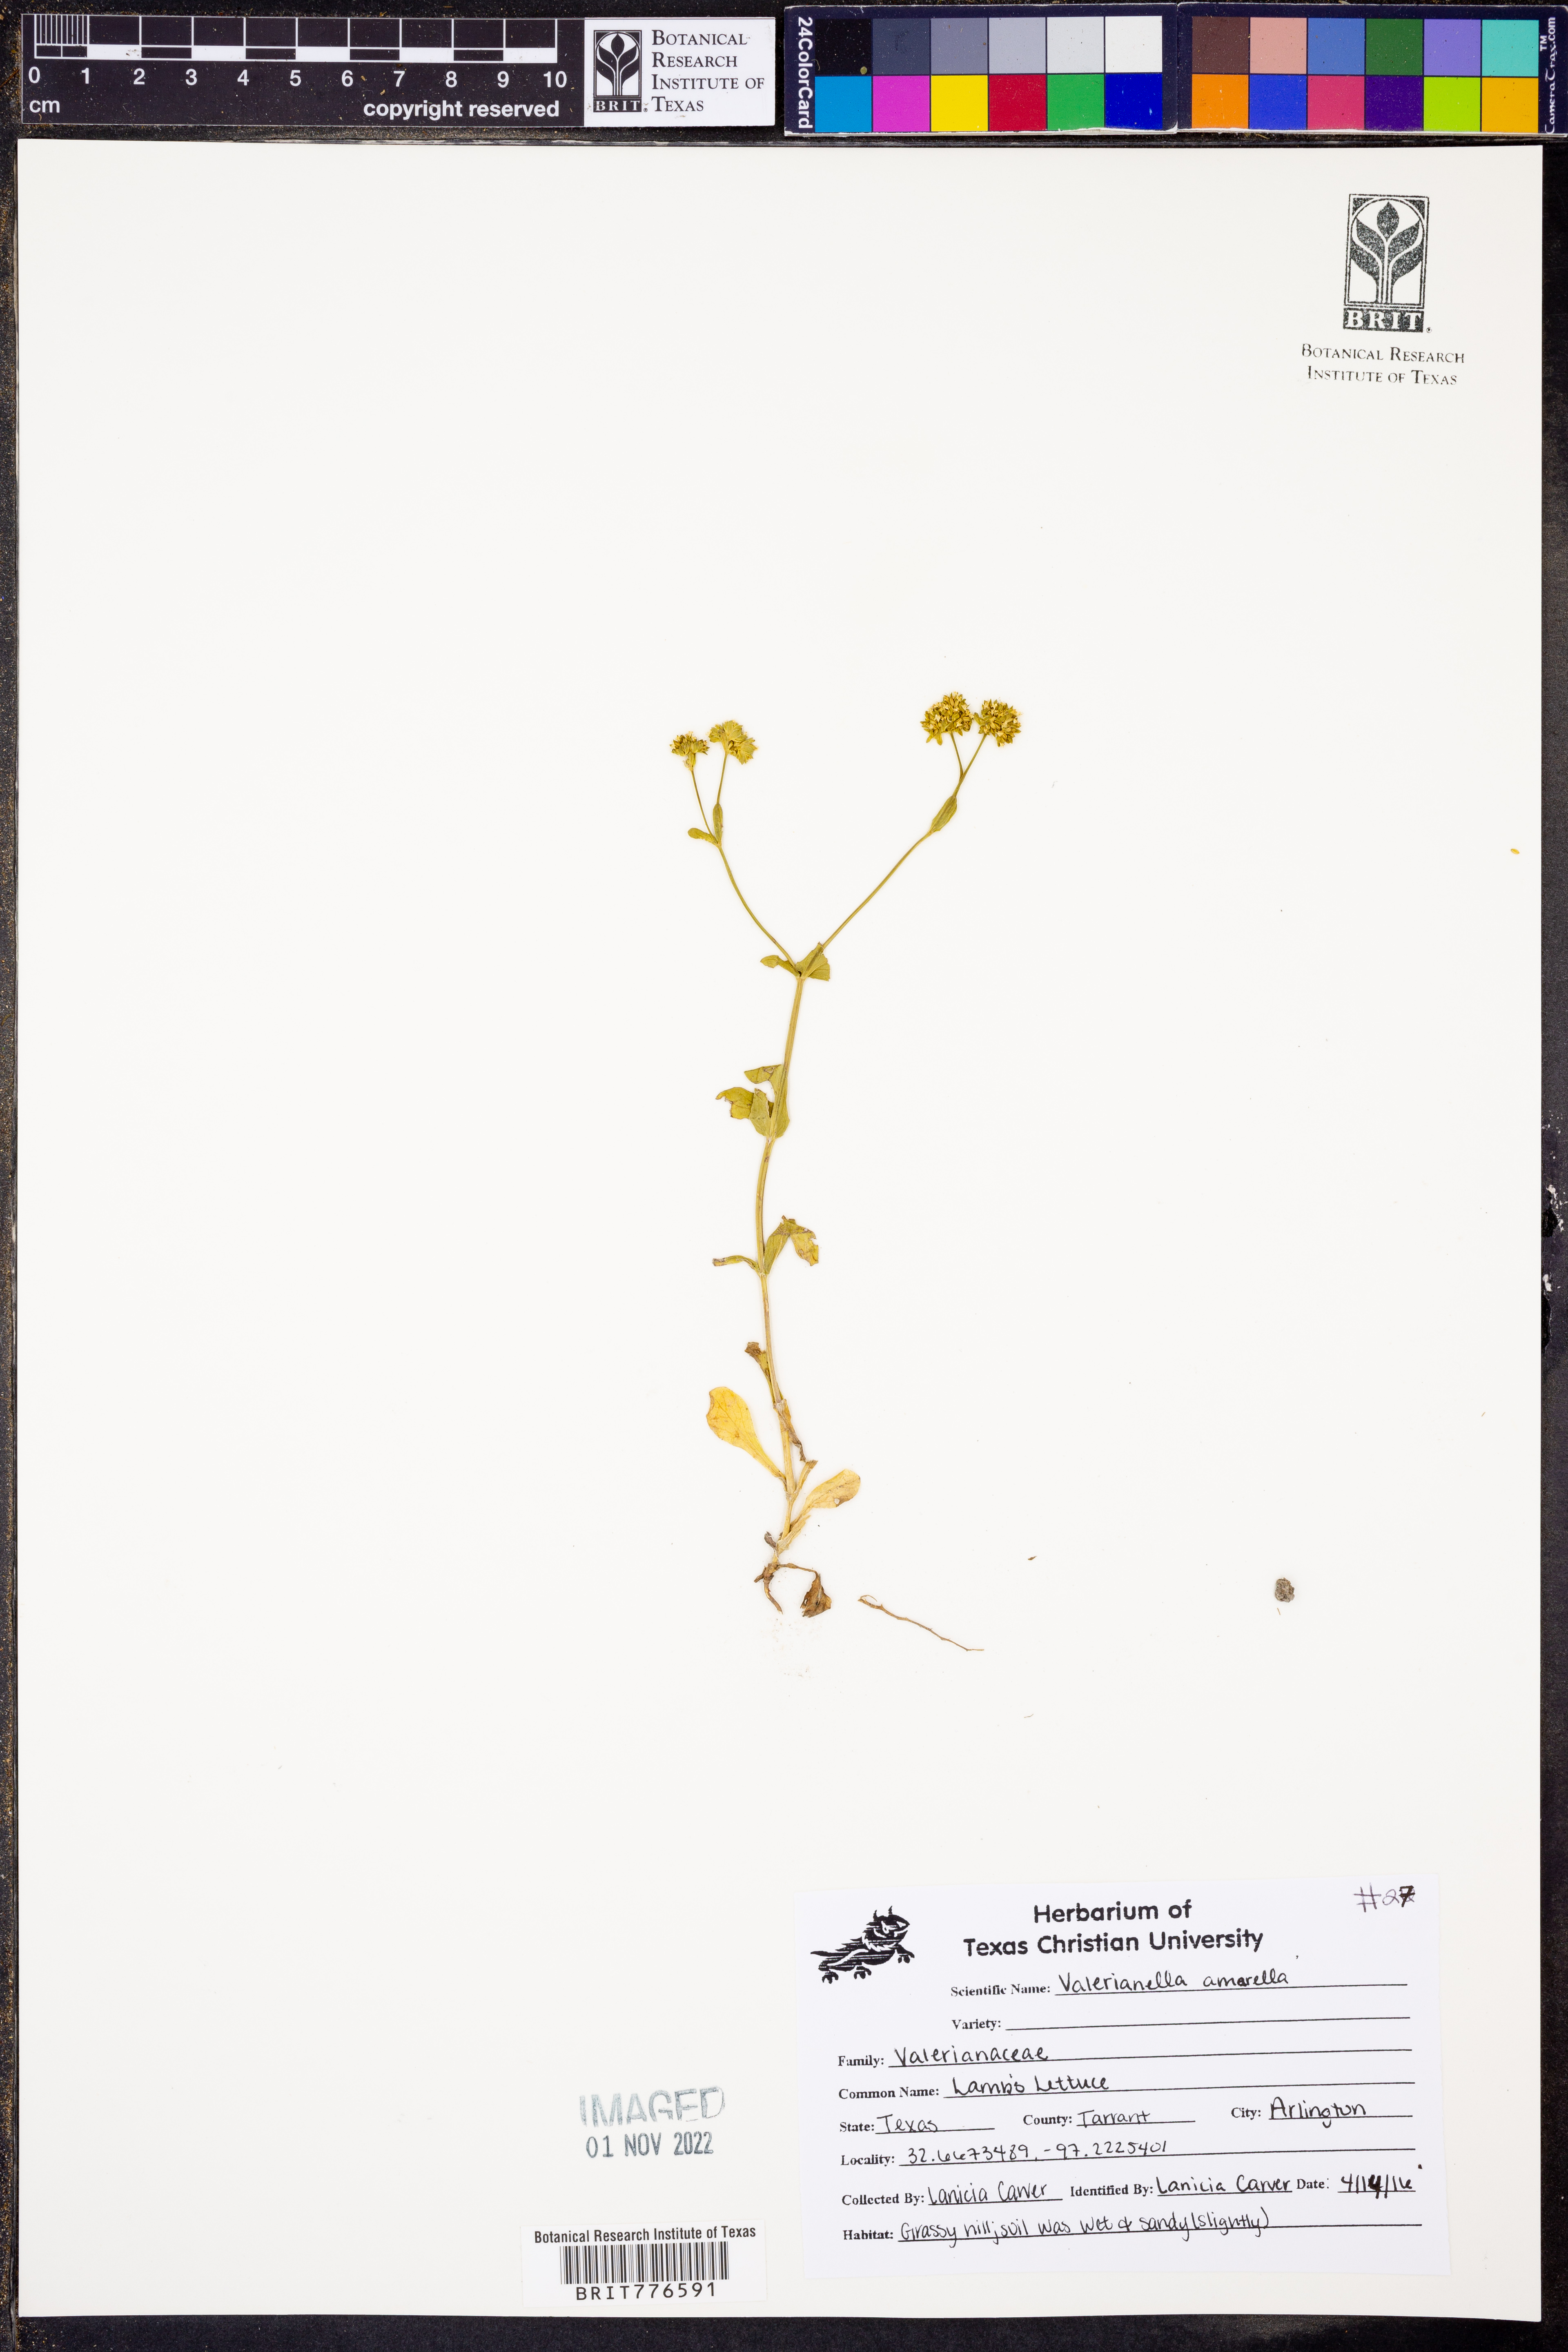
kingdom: Plantae
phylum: Tracheophyta
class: Magnoliopsida
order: Dipsacales
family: Caprifoliaceae
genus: Valerianella
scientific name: Valerianella amarella
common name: Hariy cornsalad
